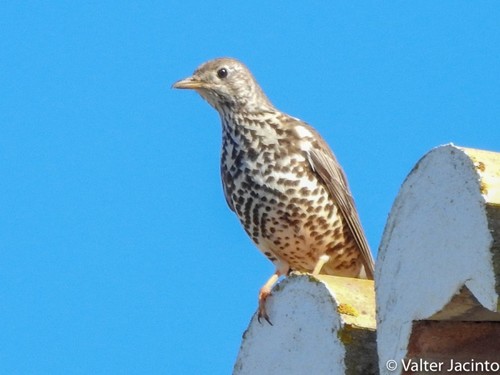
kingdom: Animalia
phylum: Chordata
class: Aves
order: Passeriformes
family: Turdidae
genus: Turdus
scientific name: Turdus viscivorus
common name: Mistle thrush
